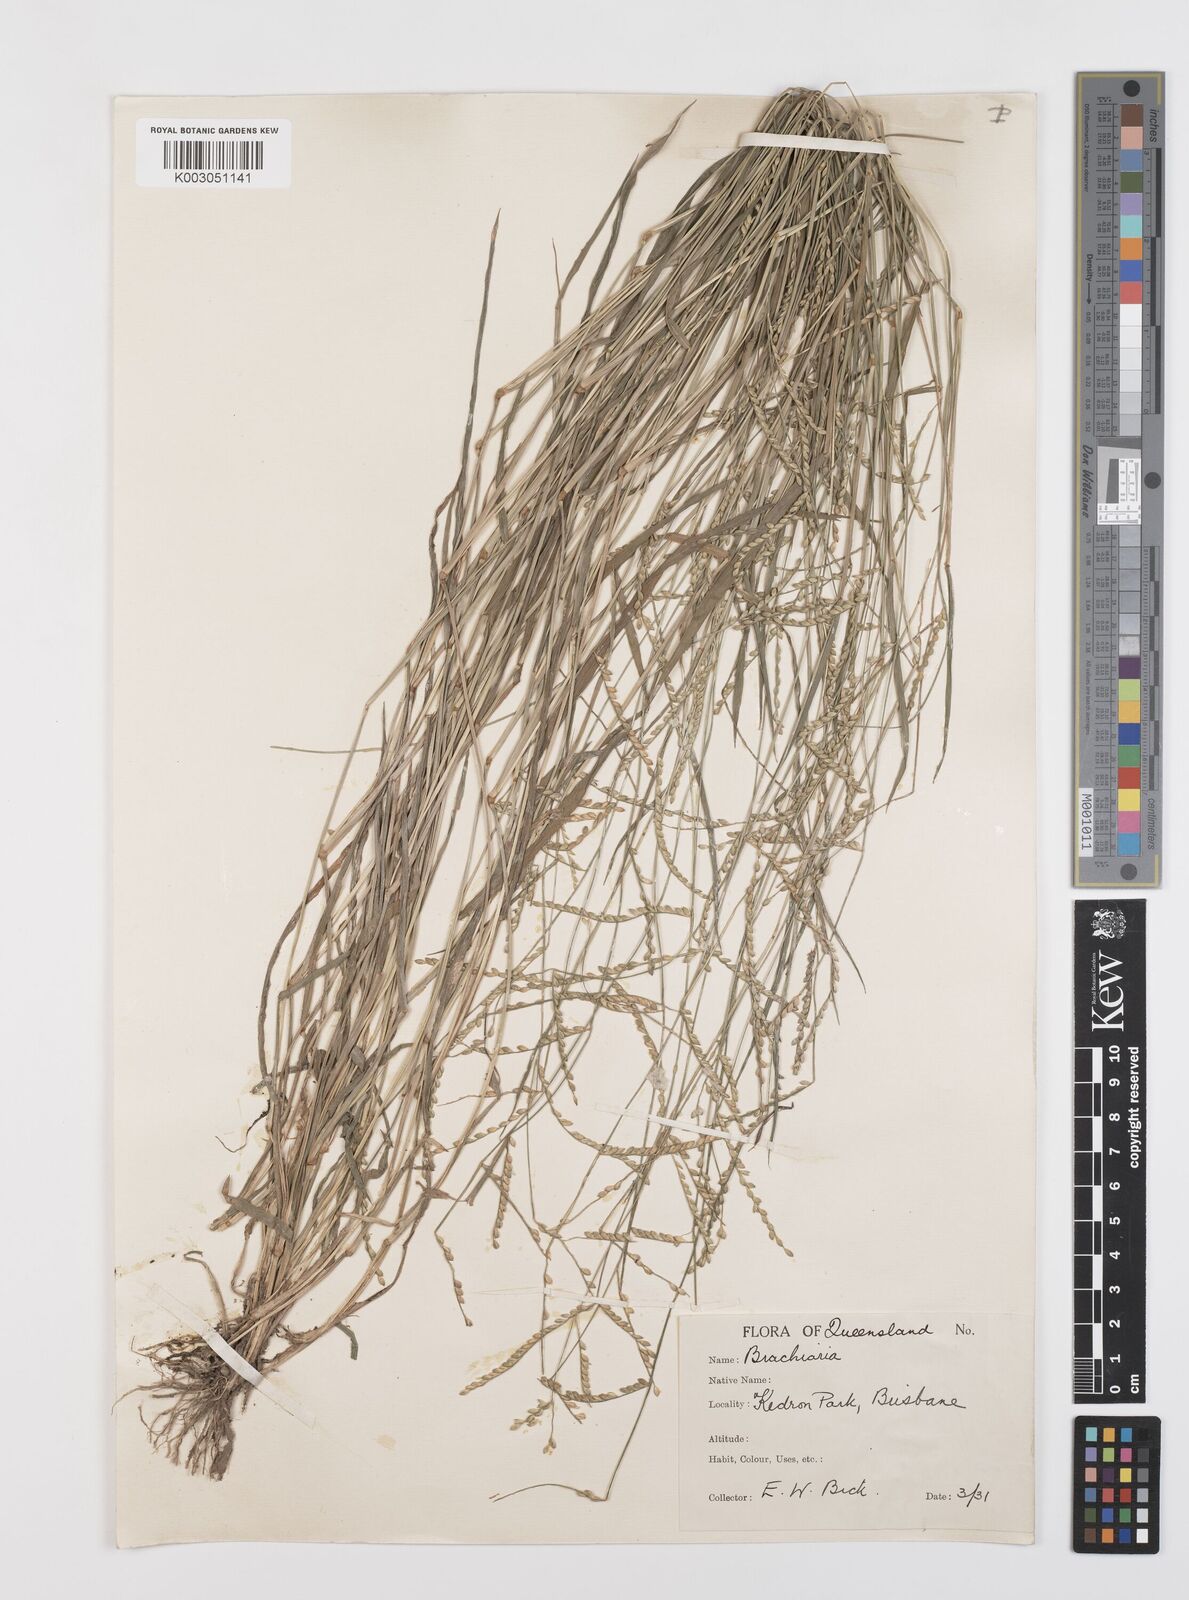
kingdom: Plantae
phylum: Tracheophyta
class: Liliopsida
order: Poales
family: Poaceae
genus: Urochloa
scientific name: Urochloa whiteana
